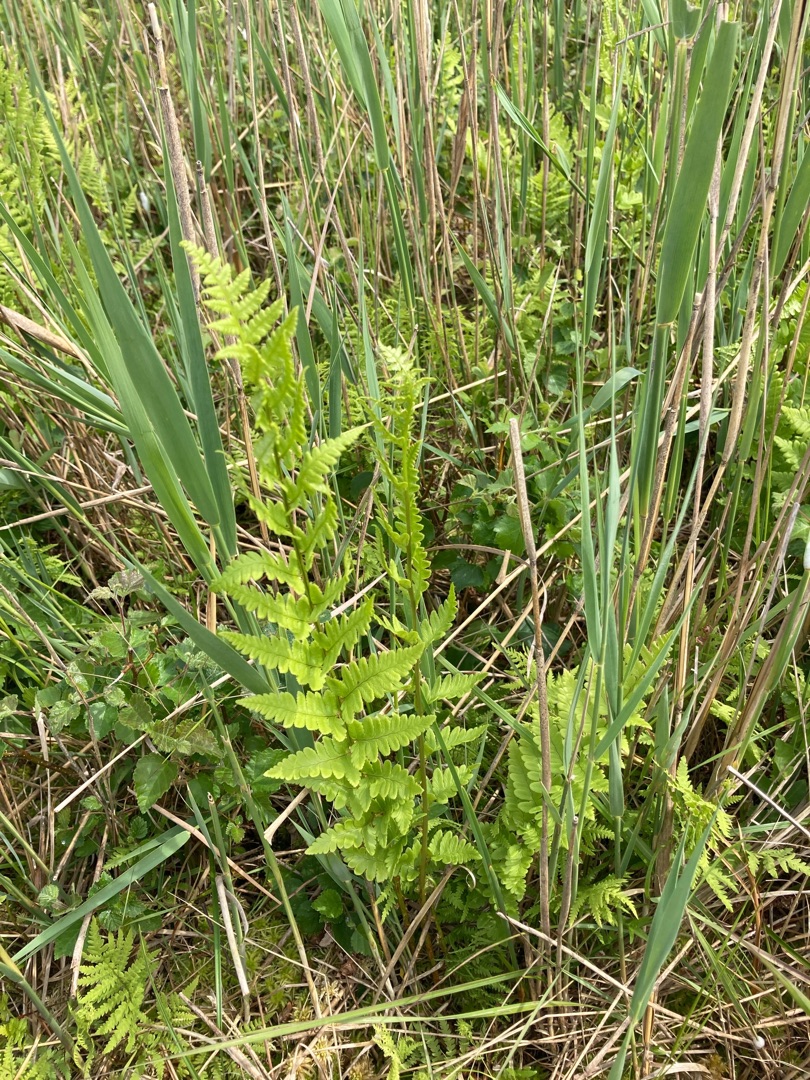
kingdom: Plantae
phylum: Tracheophyta
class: Polypodiopsida
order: Polypodiales
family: Thelypteridaceae
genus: Thelypteris
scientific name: Thelypteris palustris
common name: Kærmangeløv
